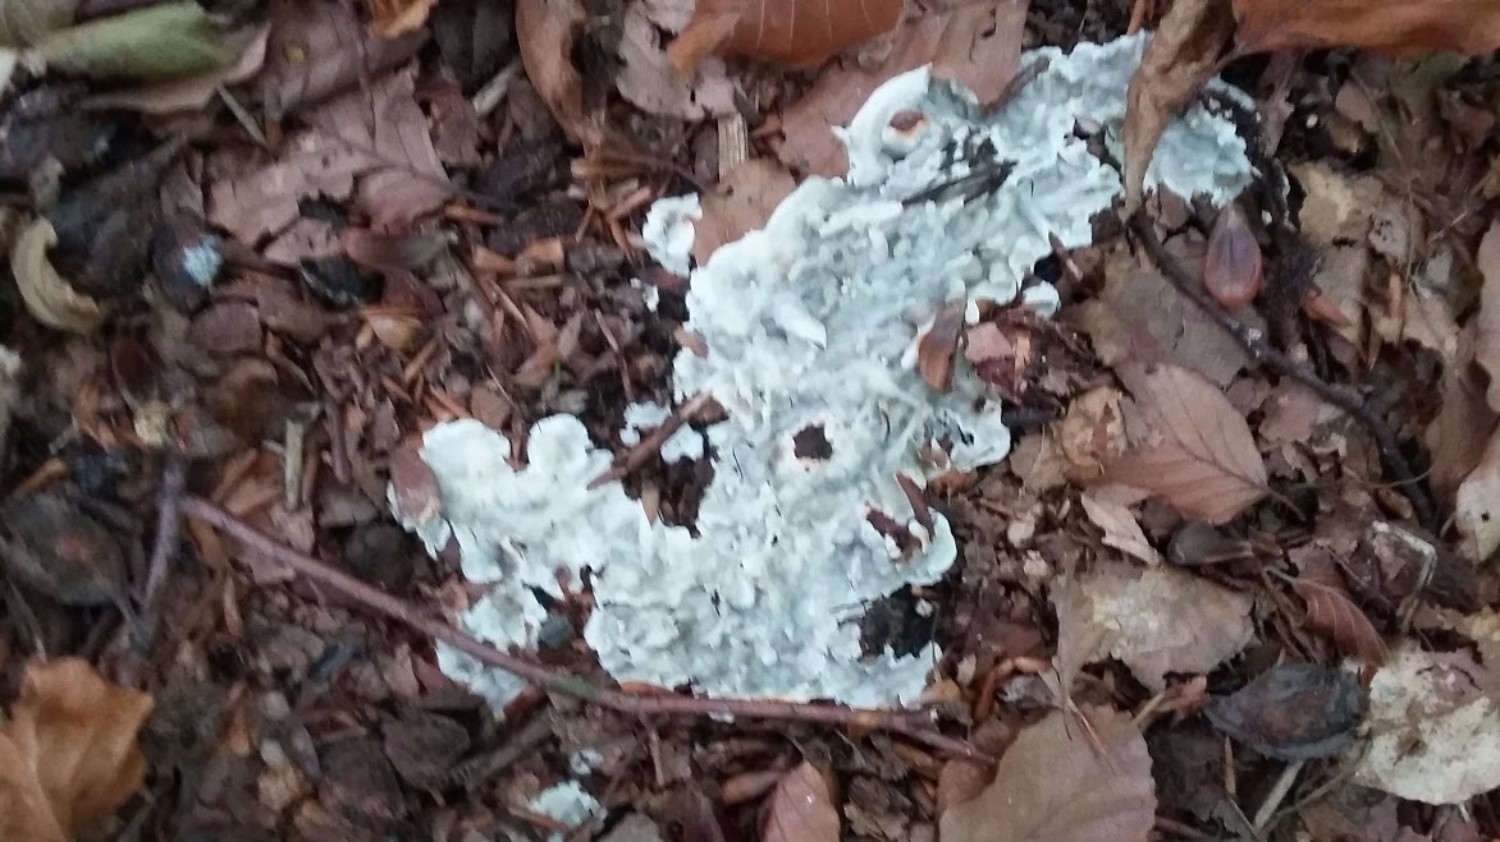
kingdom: Fungi
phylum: Basidiomycota
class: Agaricomycetes
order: Polyporales
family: Meruliaceae
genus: Physisporinus
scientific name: Physisporinus vitreus
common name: mastesvamp
